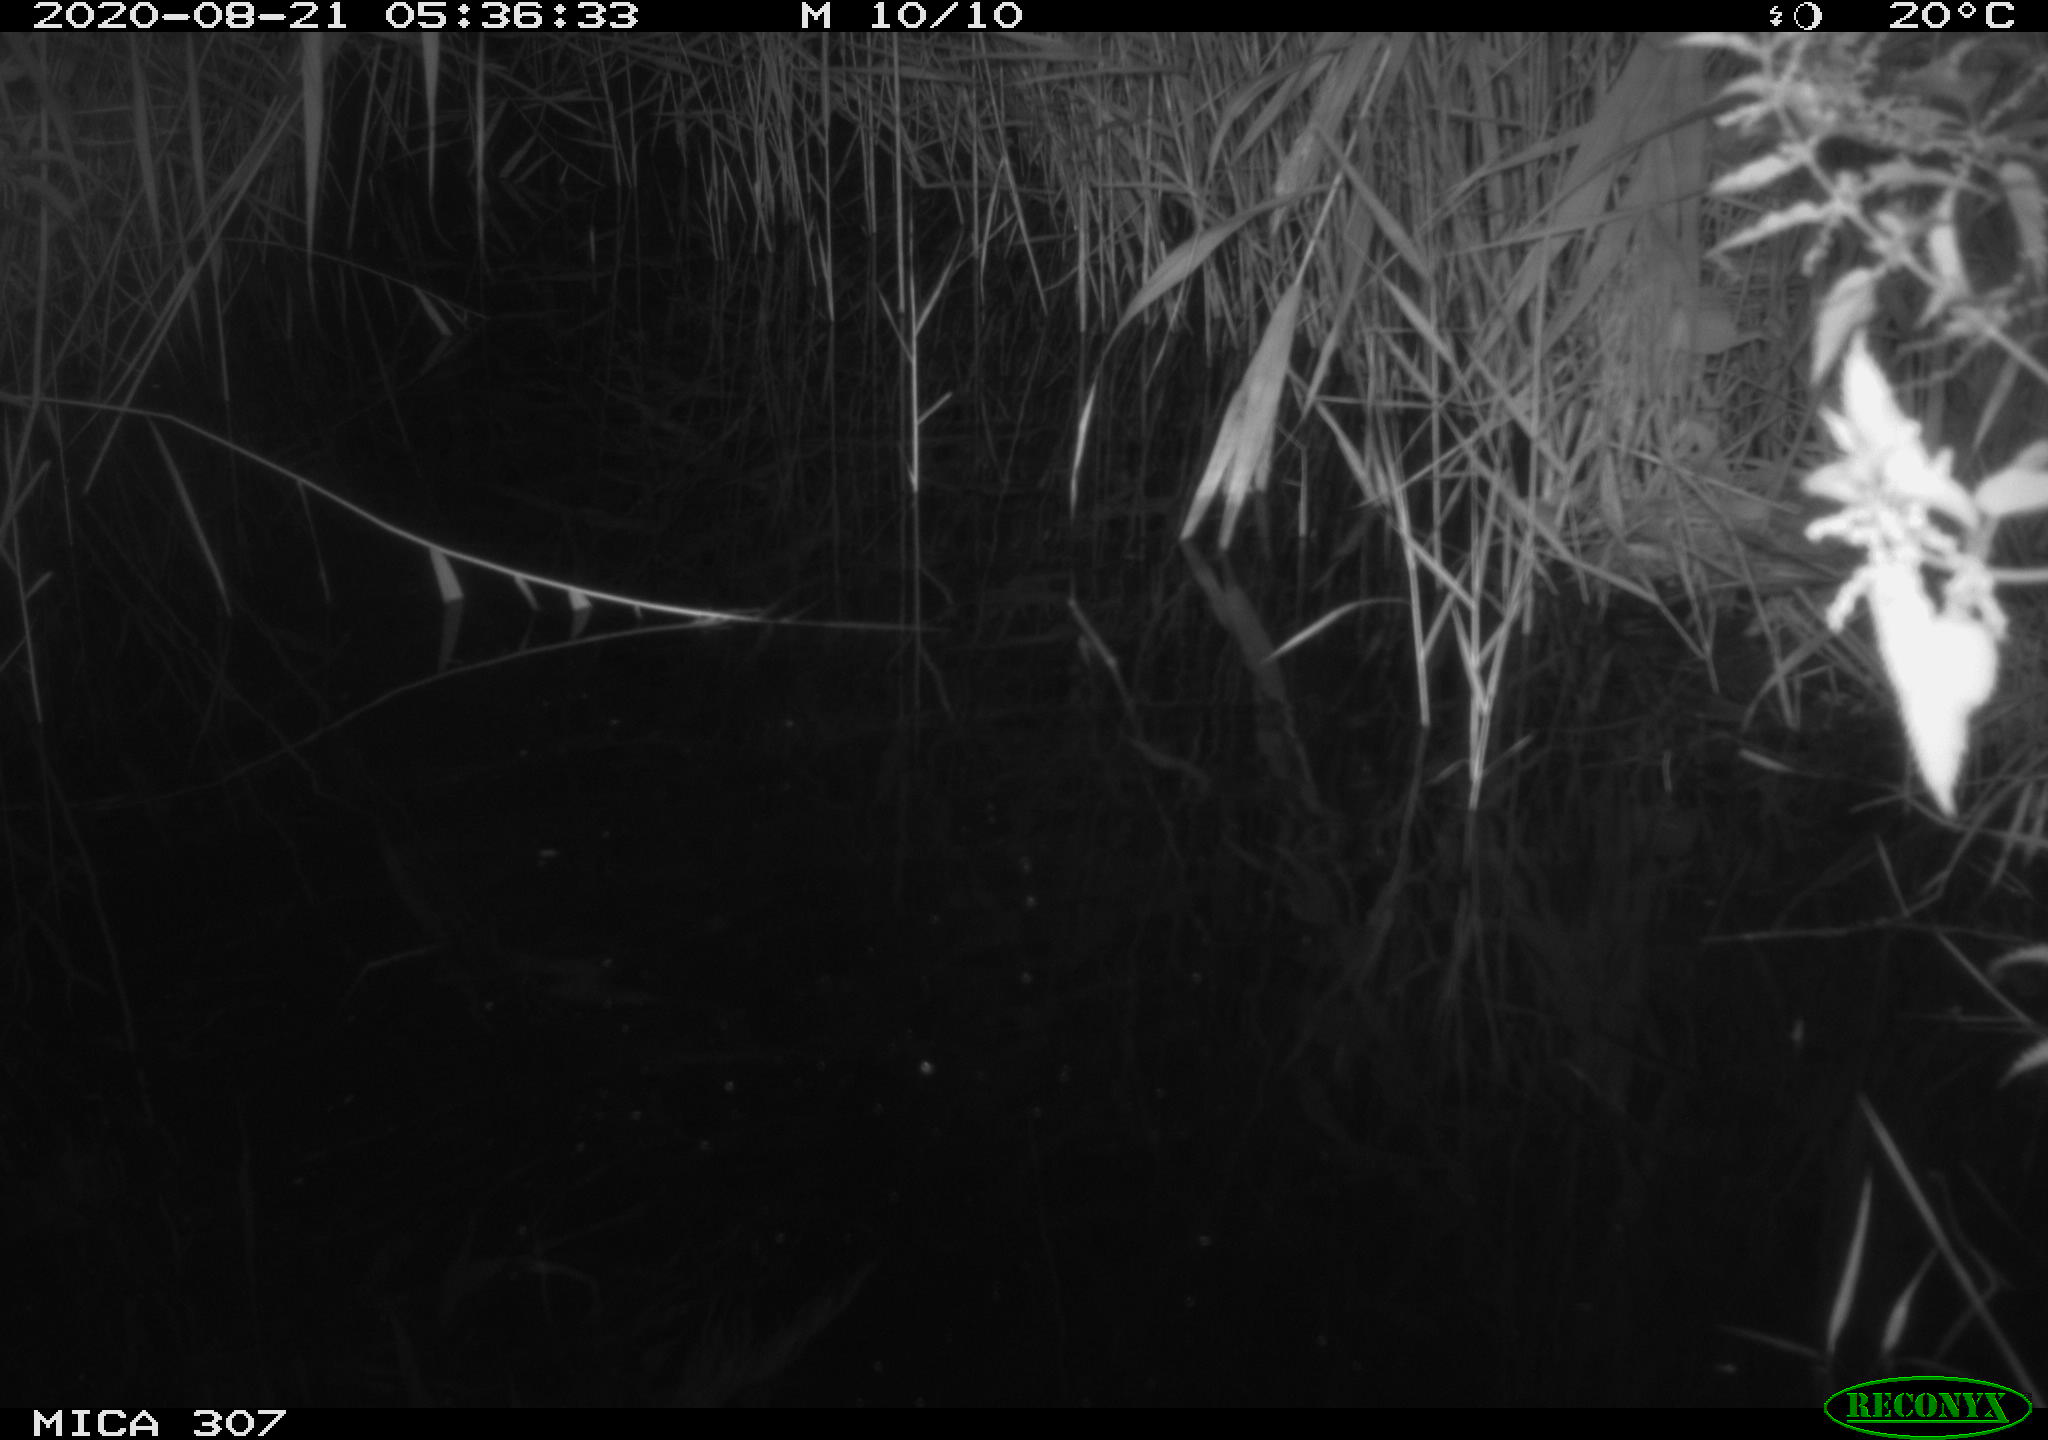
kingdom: Animalia
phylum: Chordata
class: Mammalia
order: Rodentia
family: Muridae
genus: Rattus
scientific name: Rattus norvegicus
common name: Brown rat
